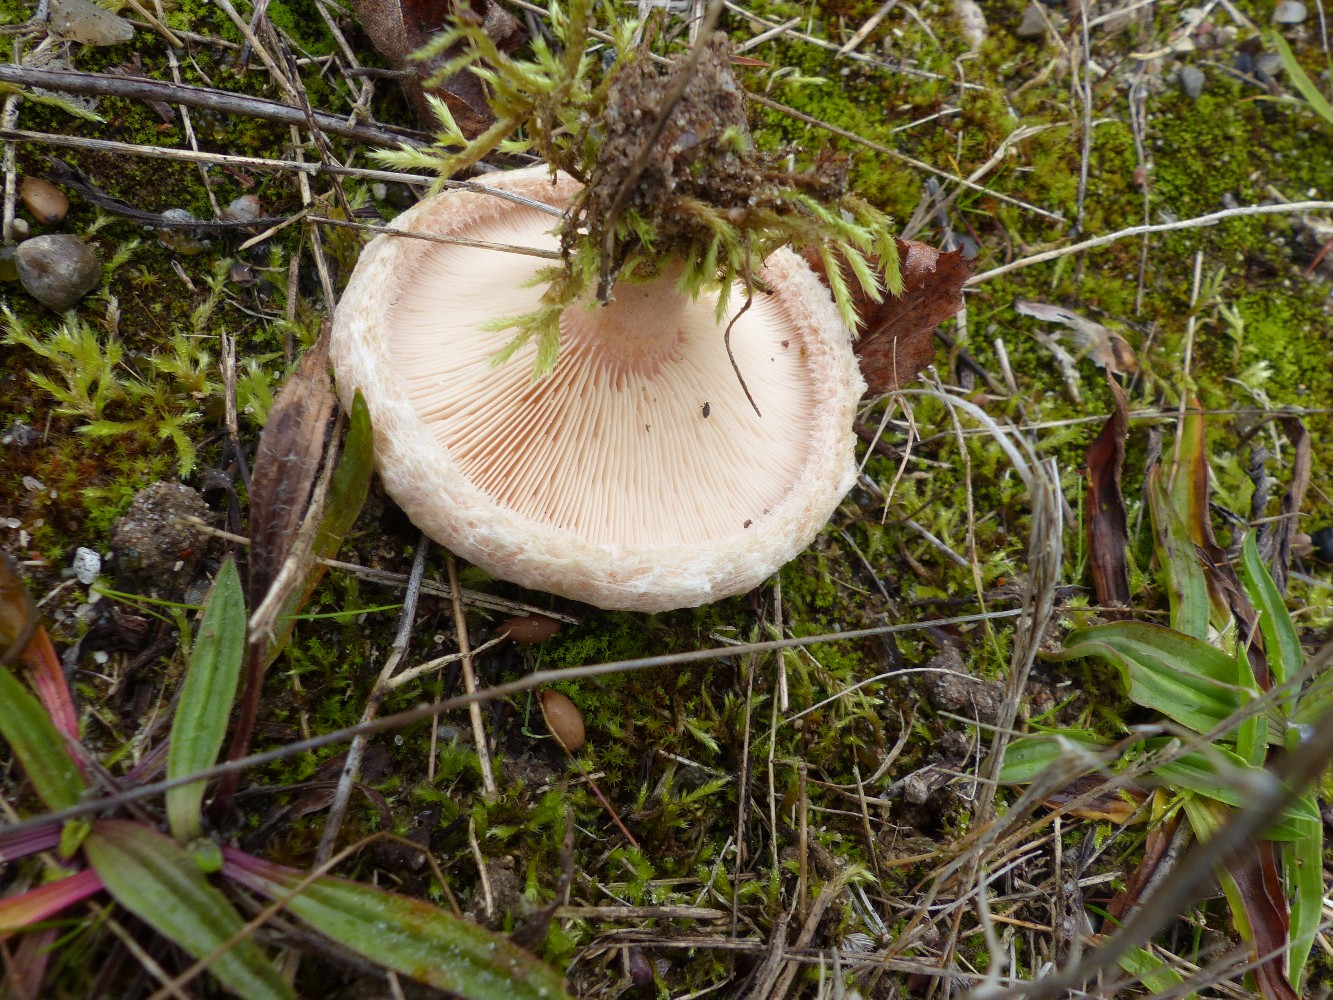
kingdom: Fungi
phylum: Basidiomycota
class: Agaricomycetes
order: Russulales
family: Russulaceae
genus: Lactarius
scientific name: Lactarius pubescens
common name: dunet mælkehat
